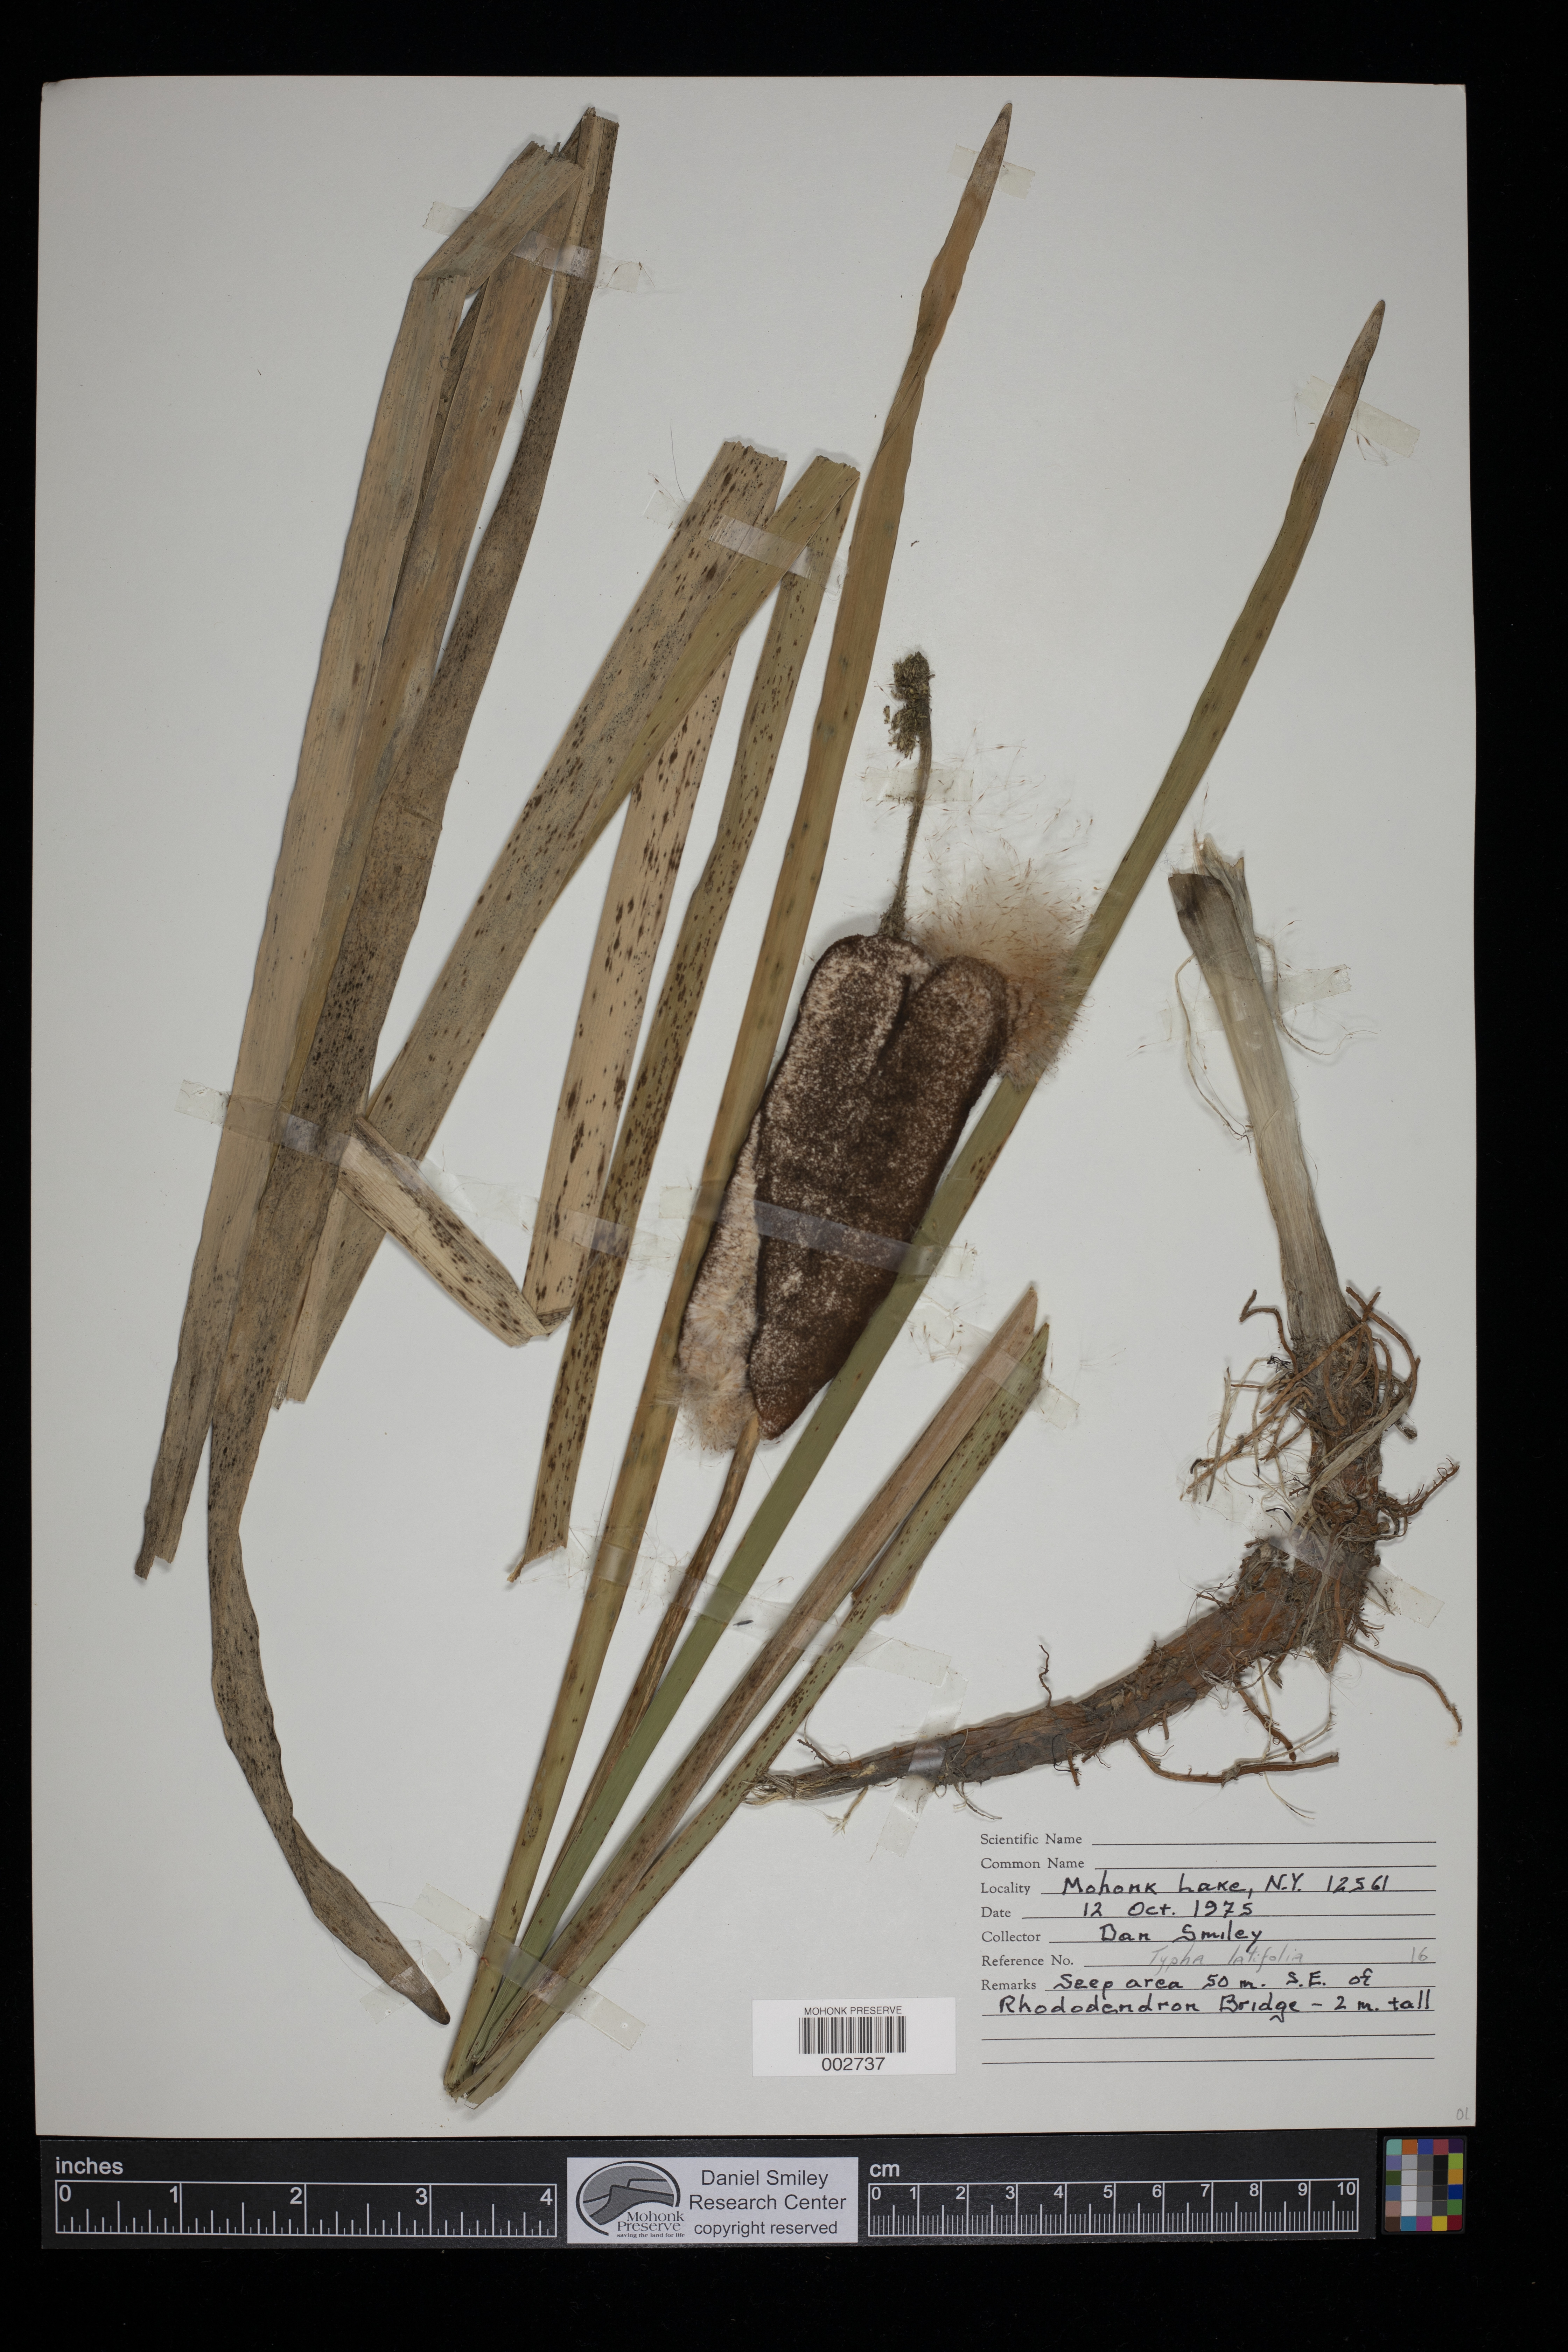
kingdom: Plantae
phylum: Tracheophyta
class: Liliopsida
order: Poales
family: Typhaceae
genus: Typha
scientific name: Typha latifolia
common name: Broadleaf cattail
